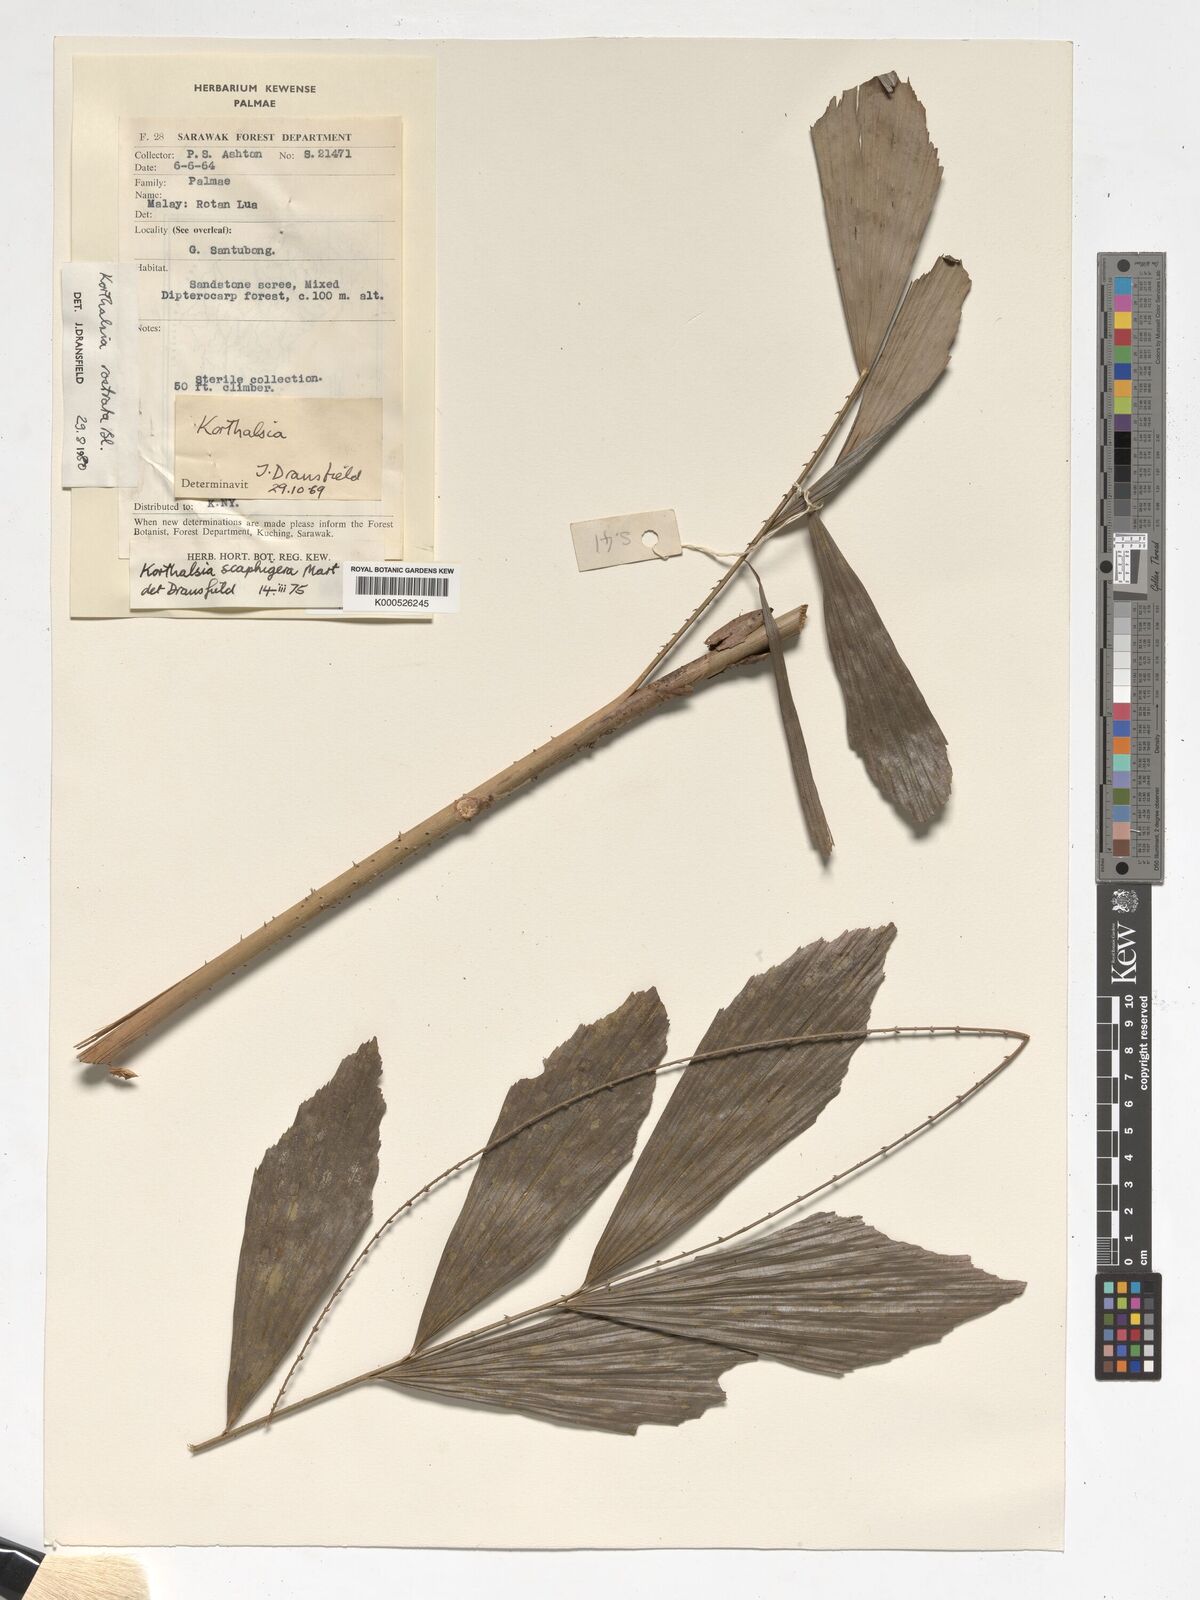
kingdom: Plantae
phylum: Tracheophyta
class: Liliopsida
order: Arecales
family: Arecaceae
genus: Korthalsia
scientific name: Korthalsia rostrata
